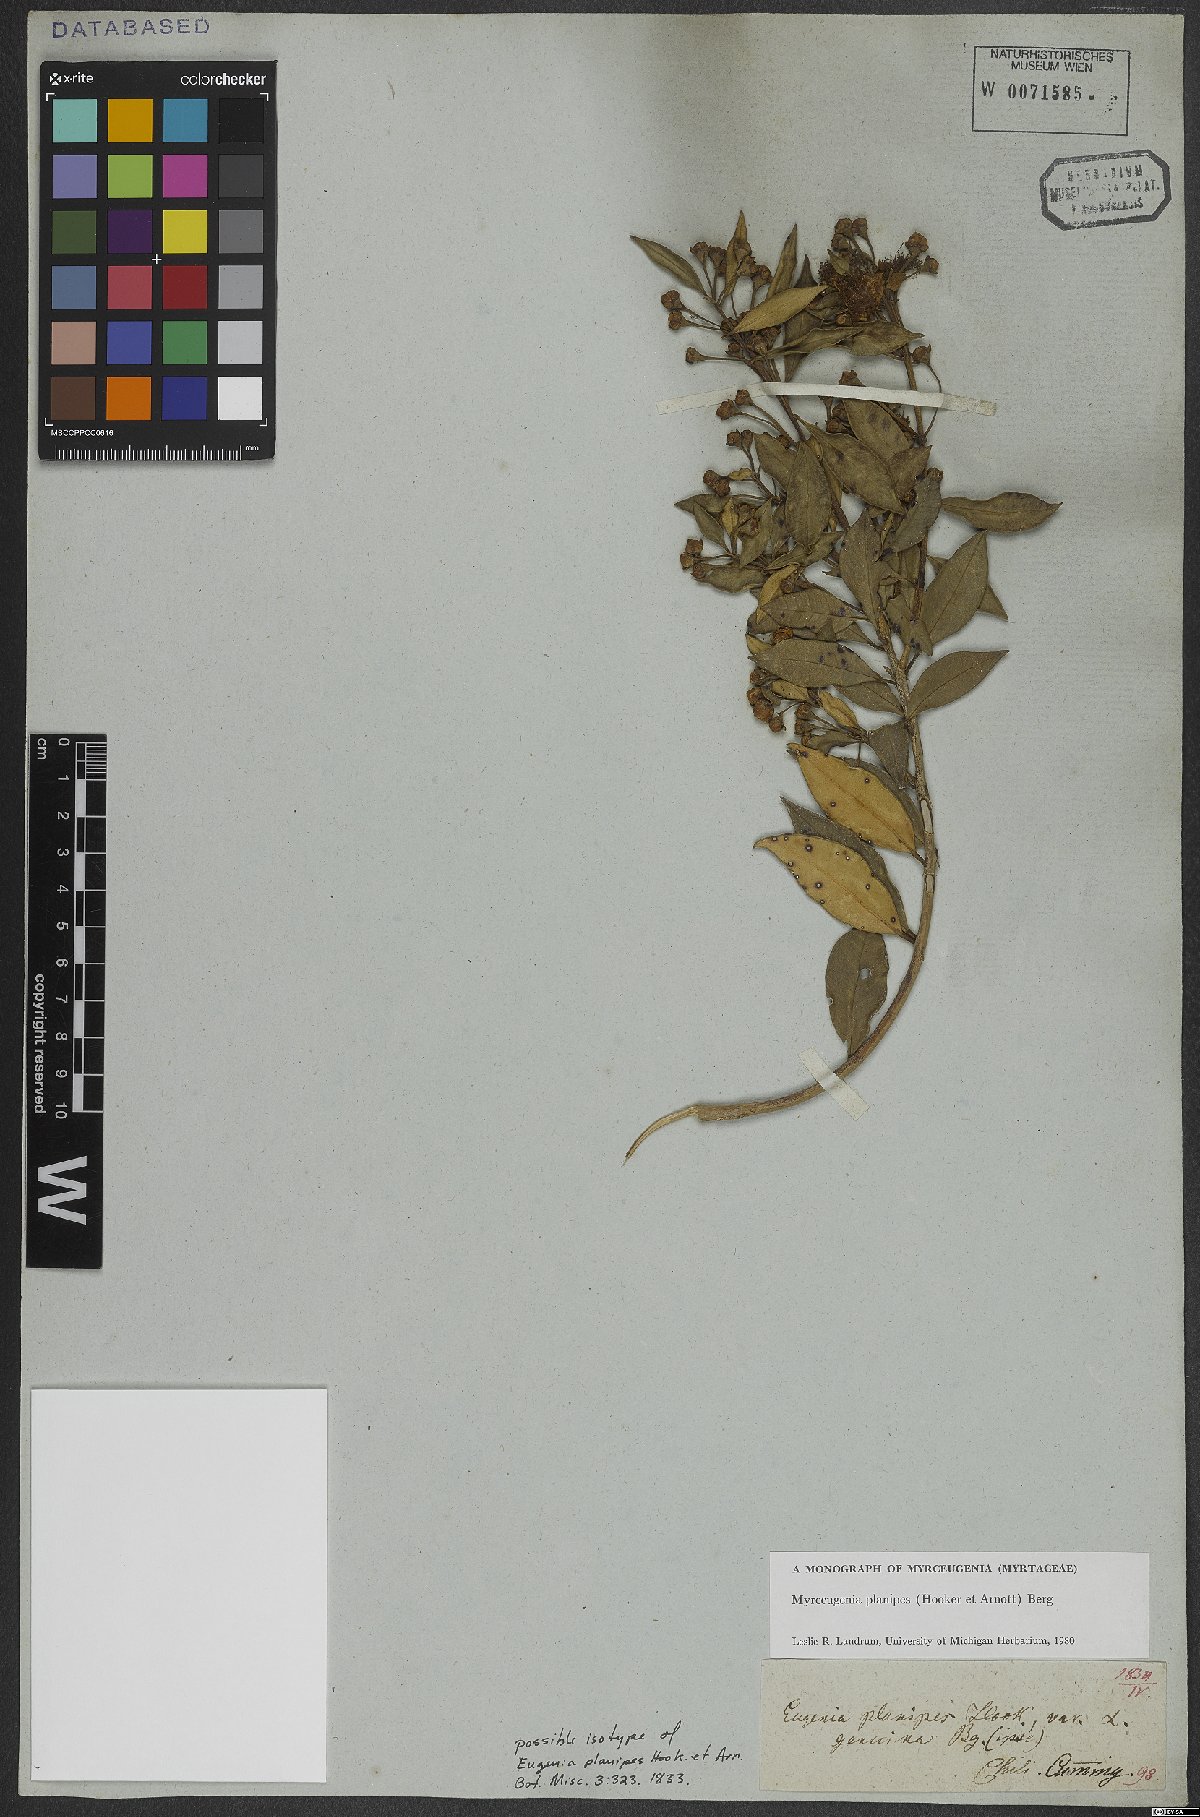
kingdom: Plantae
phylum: Tracheophyta
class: Magnoliopsida
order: Myrtales
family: Myrtaceae
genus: Myrceugenia
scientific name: Myrceugenia planipes
